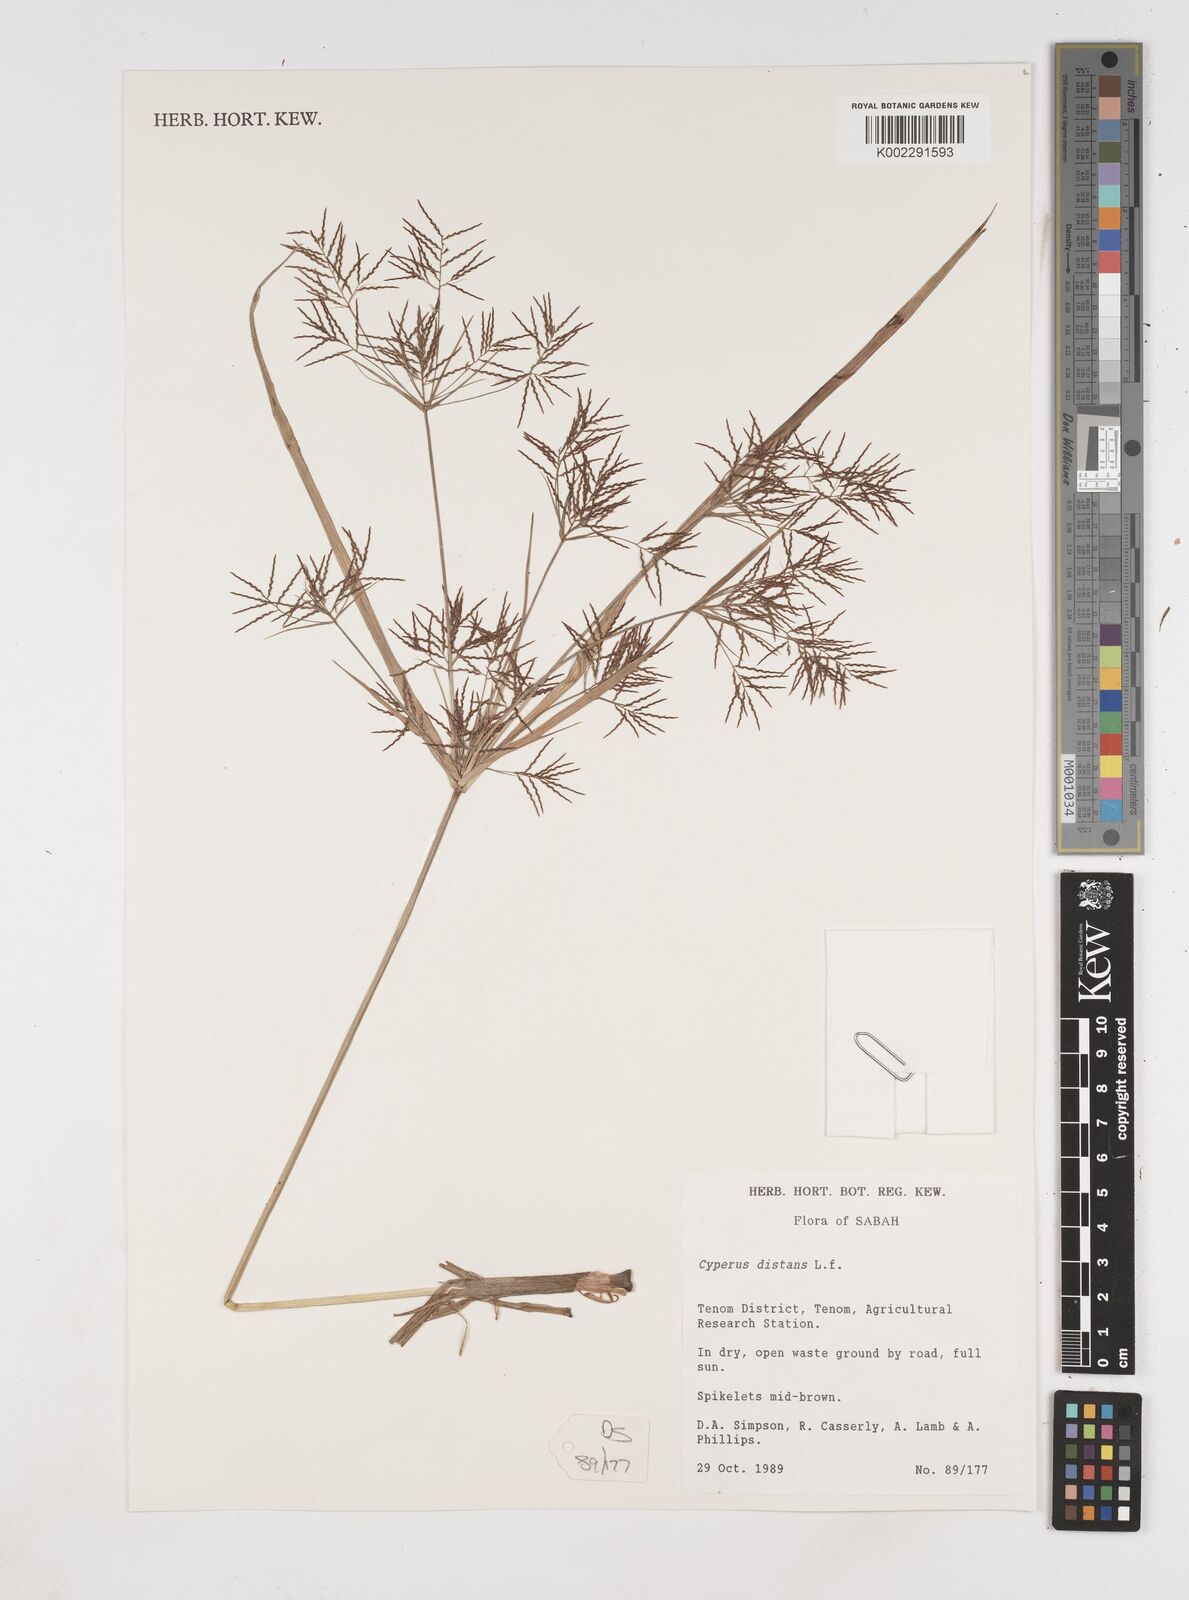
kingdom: Plantae
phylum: Tracheophyta
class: Liliopsida
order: Poales
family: Cyperaceae
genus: Cyperus
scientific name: Cyperus distans
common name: Slender cyperus
